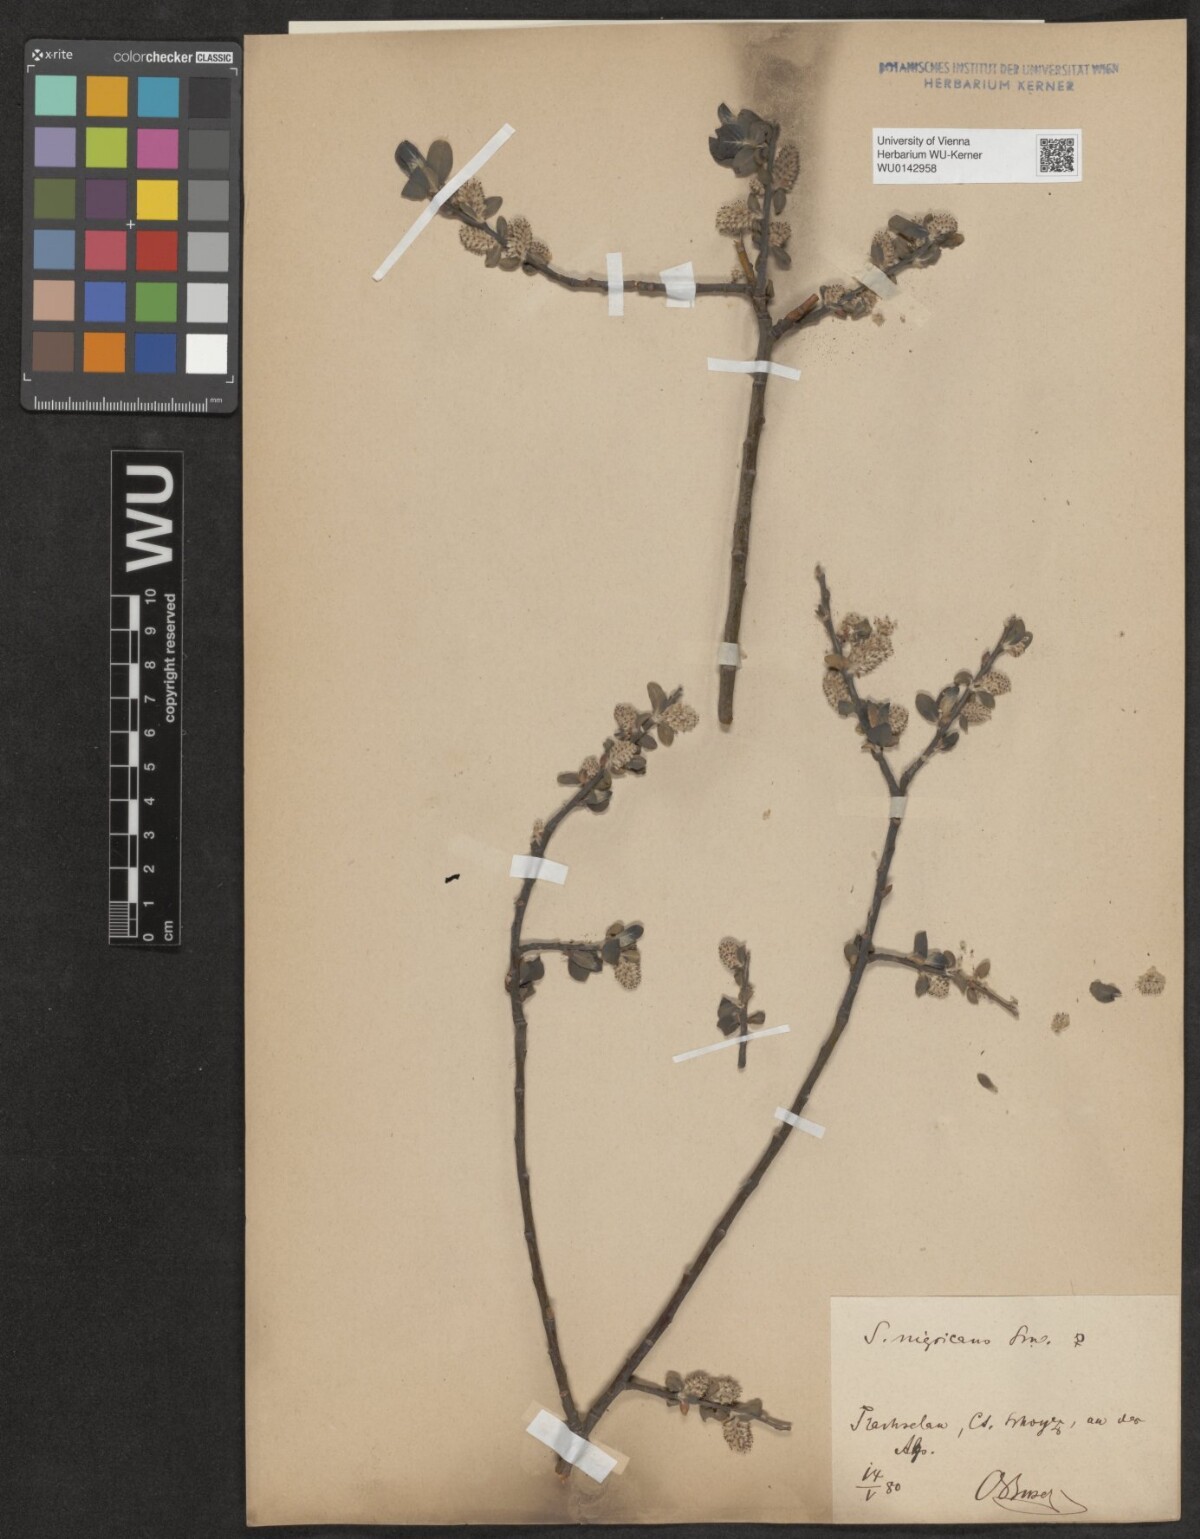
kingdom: Plantae
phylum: Tracheophyta
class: Magnoliopsida
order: Malpighiales
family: Salicaceae
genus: Salix
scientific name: Salix myrsinifolia
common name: Dark-leaved willow
